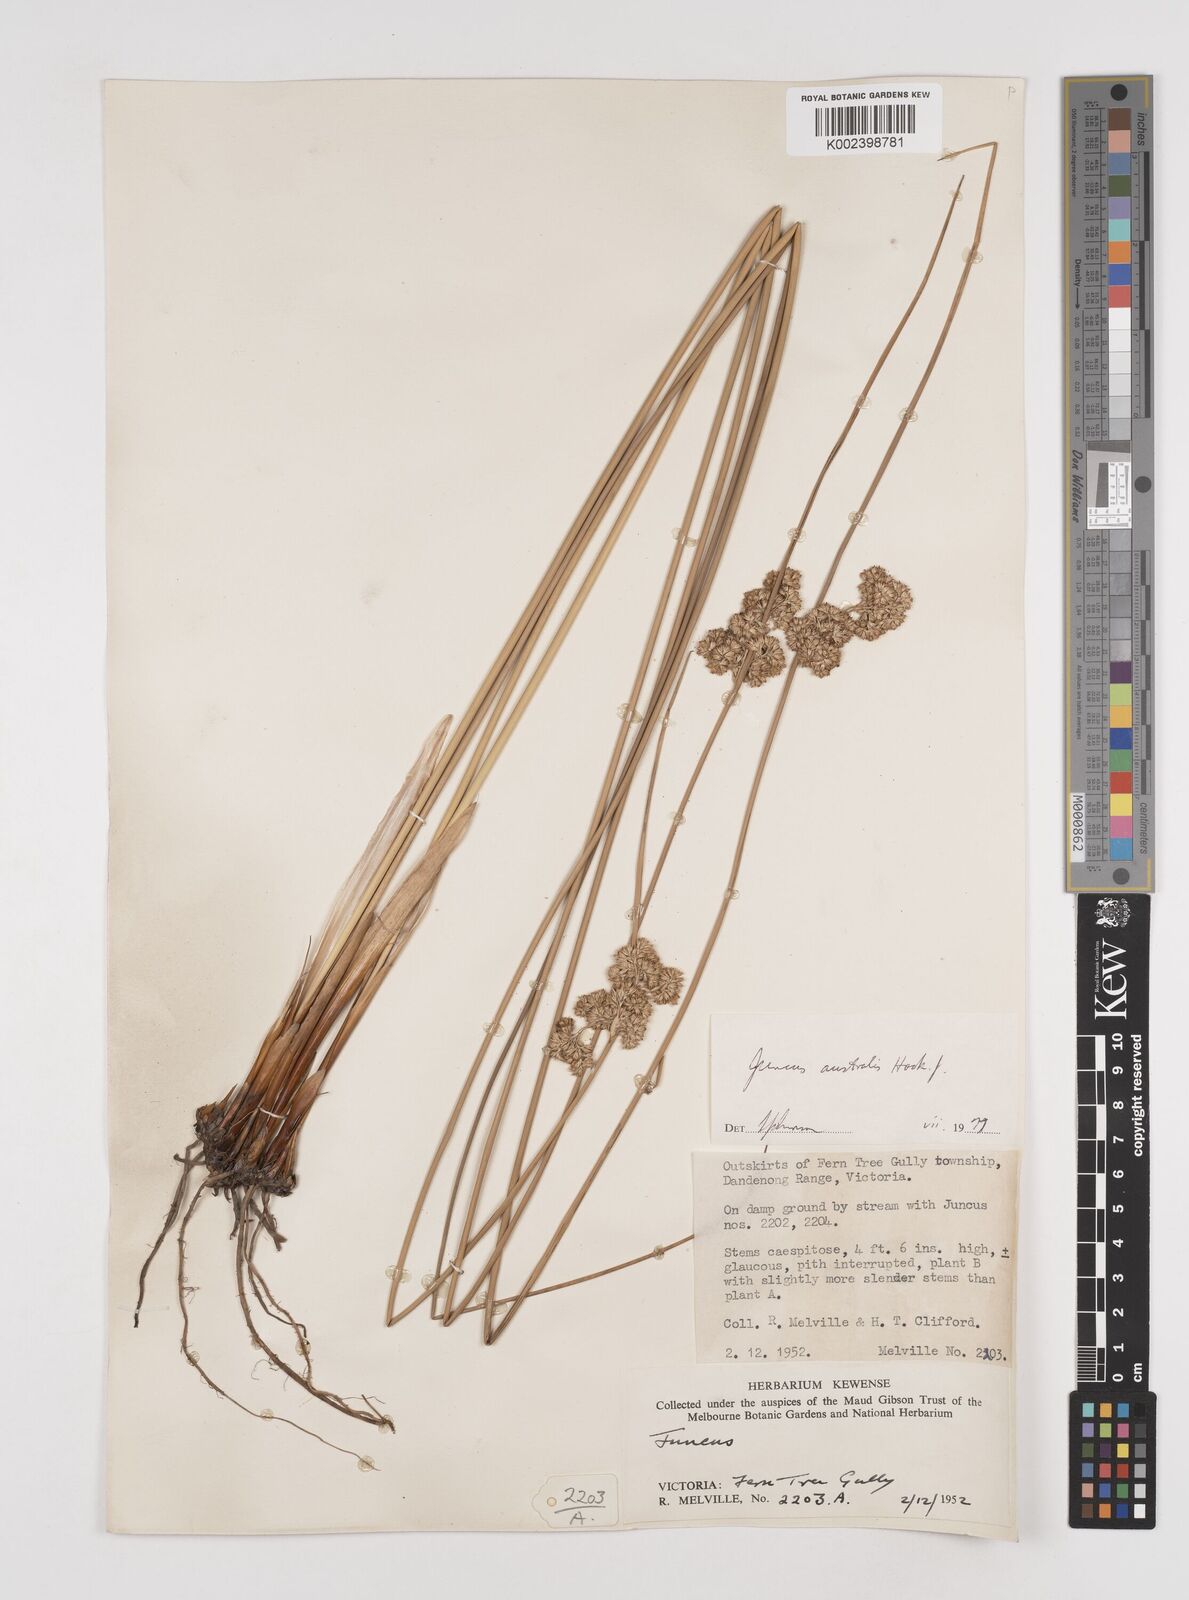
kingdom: Plantae
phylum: Tracheophyta
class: Liliopsida
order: Poales
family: Juncaceae
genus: Juncus
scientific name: Juncus australis
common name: Austral rush
